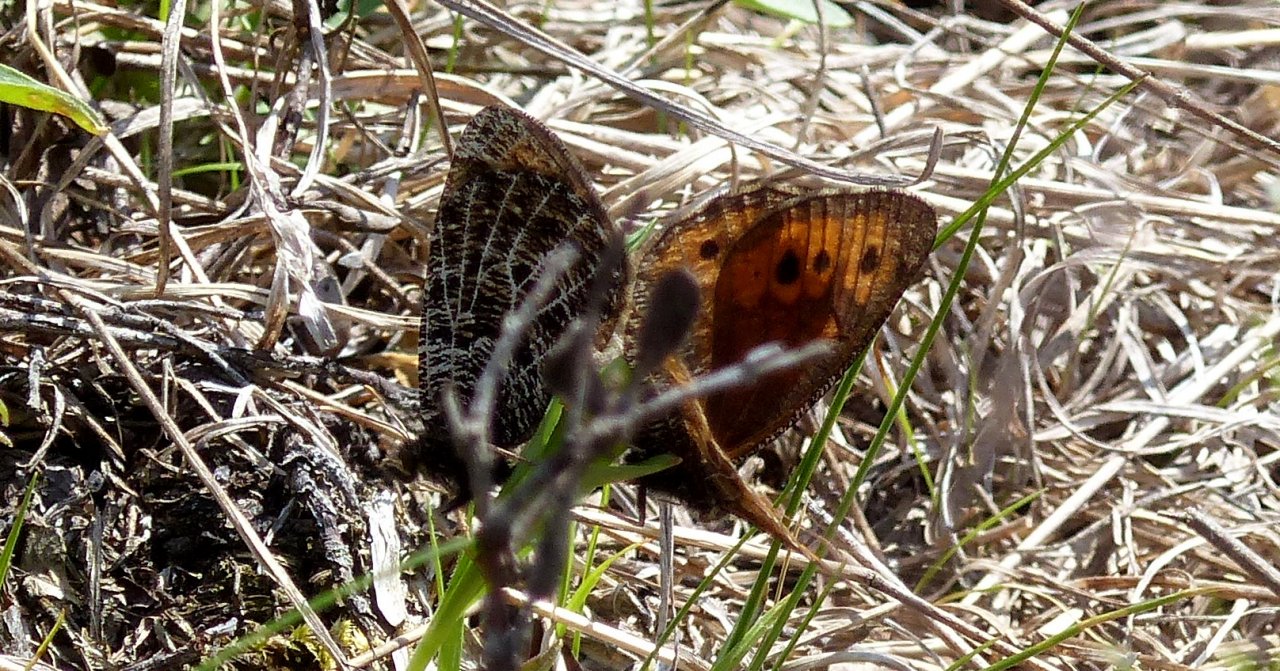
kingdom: Animalia
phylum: Arthropoda
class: Insecta
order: Lepidoptera
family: Nymphalidae
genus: Oeneis
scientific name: Oeneis chryxus
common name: Chryxus Arctic
